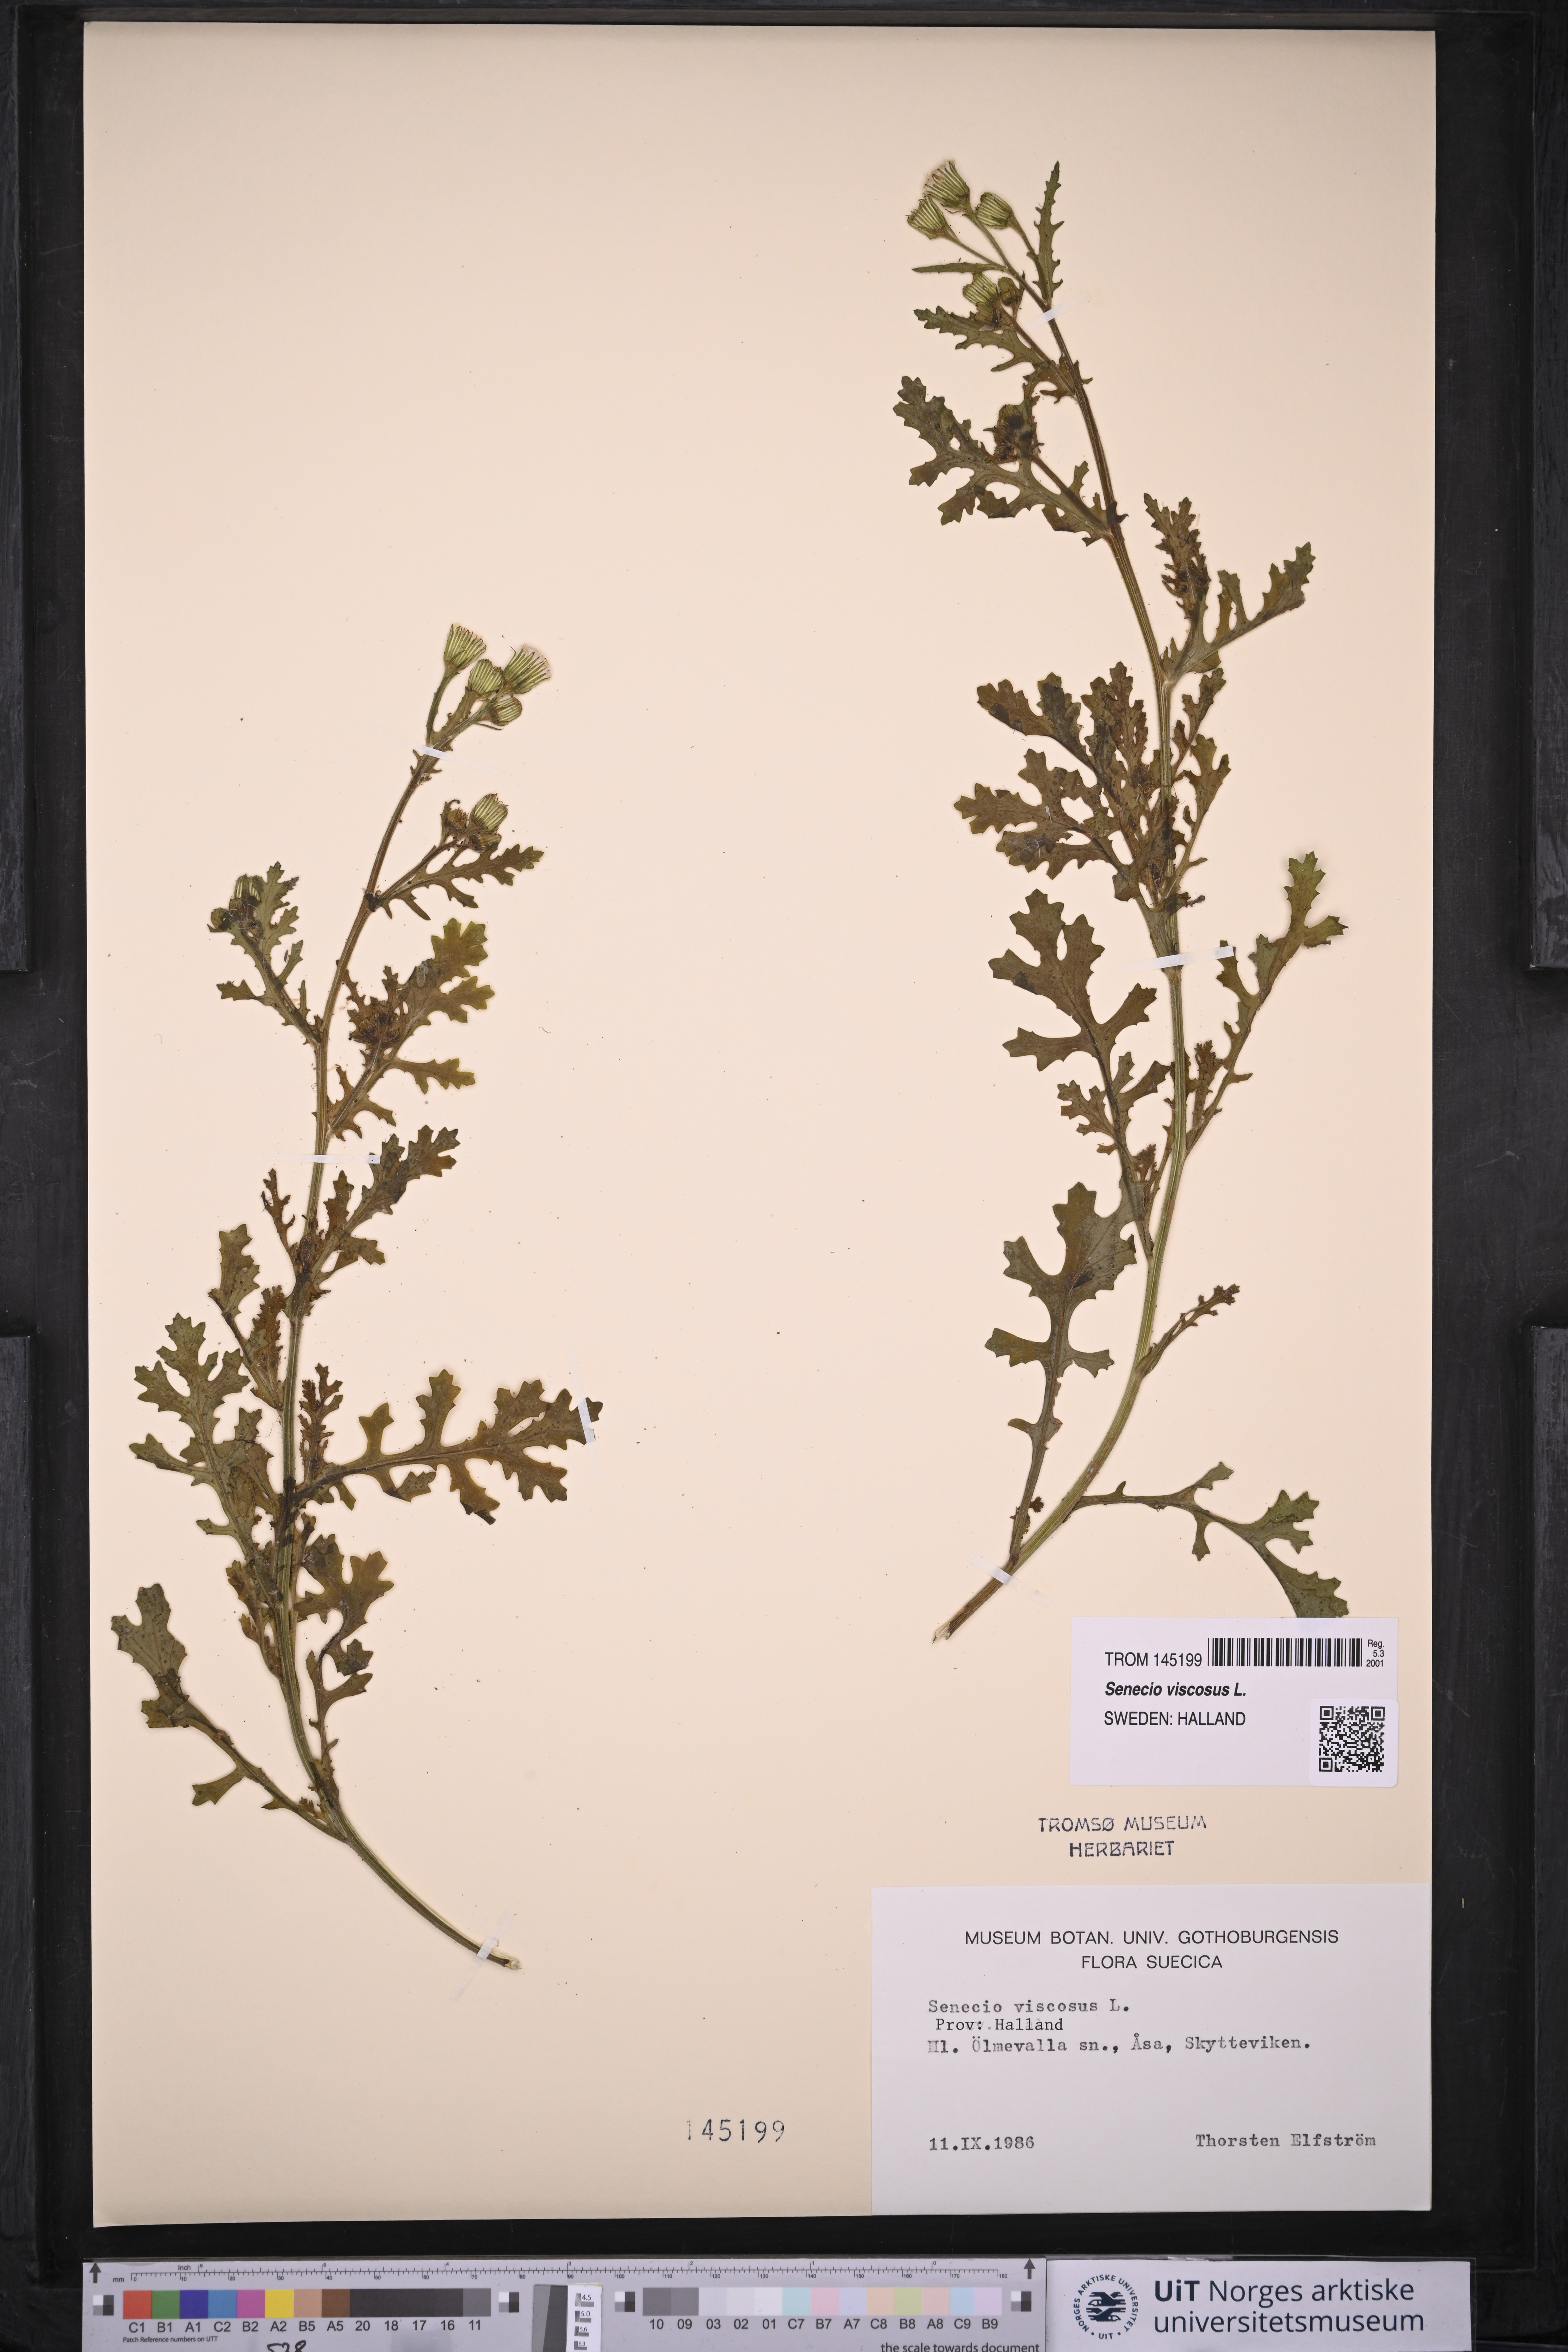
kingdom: Plantae
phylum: Tracheophyta
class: Magnoliopsida
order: Asterales
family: Asteraceae
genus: Senecio
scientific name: Senecio viscosus
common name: Sticky groundsel
